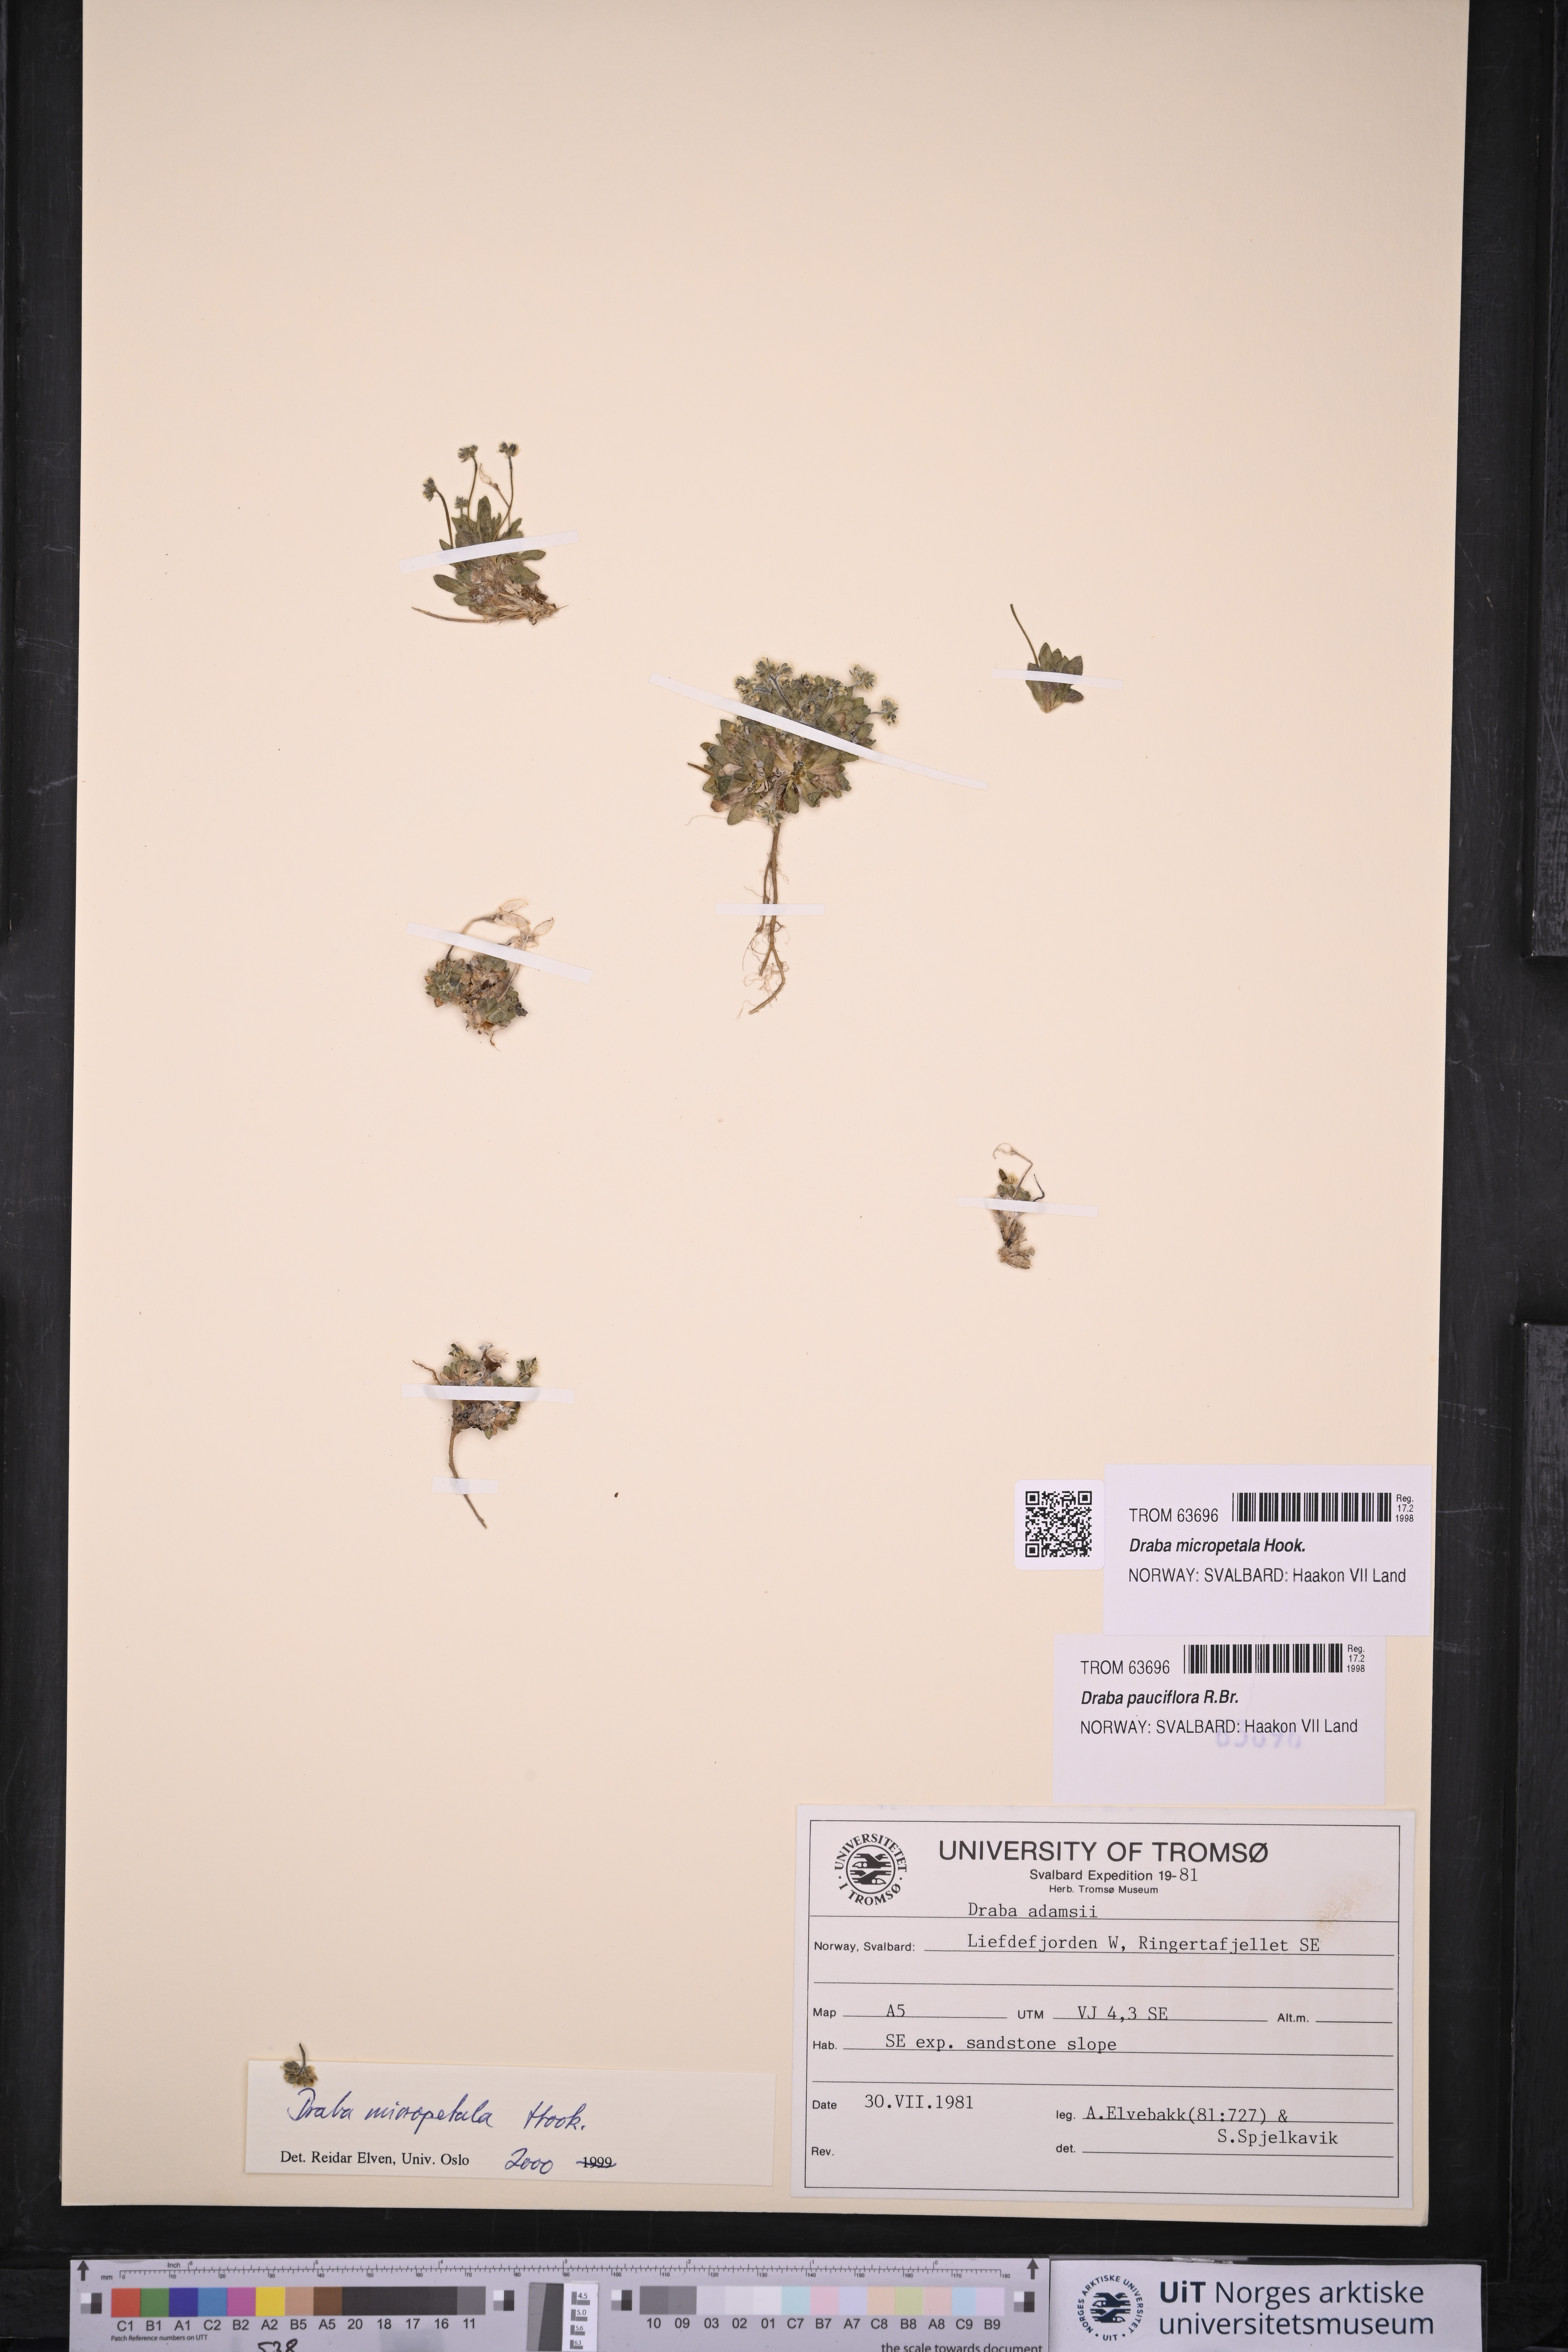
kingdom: Plantae
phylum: Tracheophyta
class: Magnoliopsida
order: Brassicales
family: Brassicaceae
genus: Draba
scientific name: Draba micropetala
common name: Small-flowered draba
